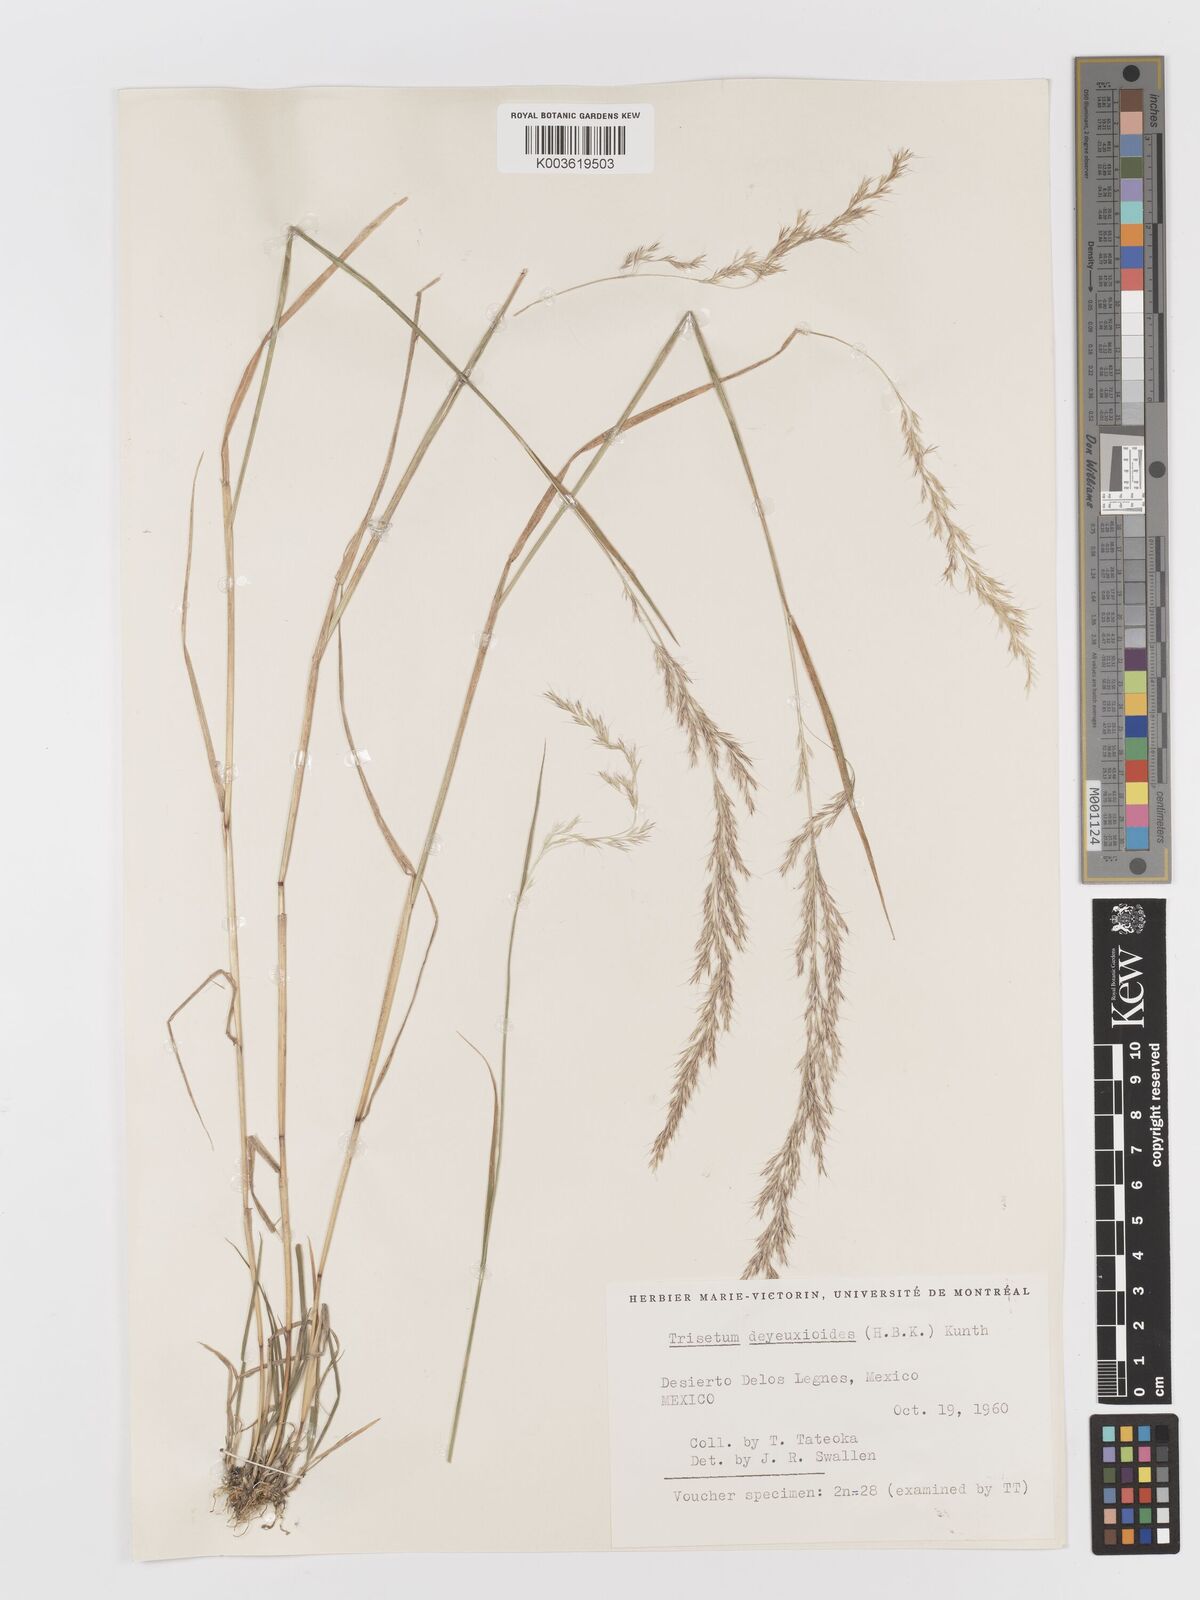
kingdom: Plantae
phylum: Tracheophyta
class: Liliopsida
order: Poales
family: Poaceae
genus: Peyritschia
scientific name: Peyritschia deyeuxioides
